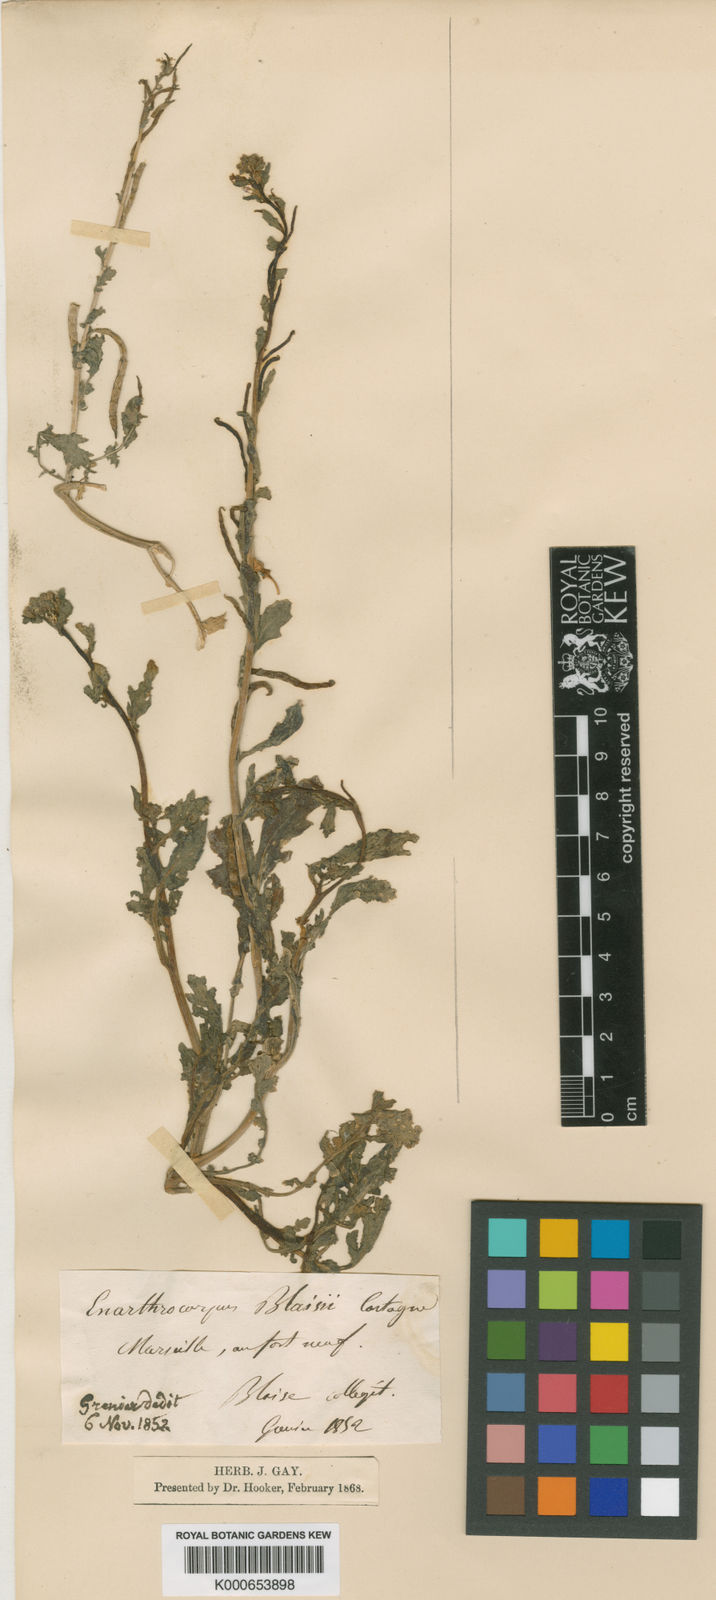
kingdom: Plantae
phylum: Tracheophyta
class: Magnoliopsida
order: Brassicales
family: Brassicaceae
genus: Enarthrocarpus
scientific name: Enarthrocarpus lyratus
